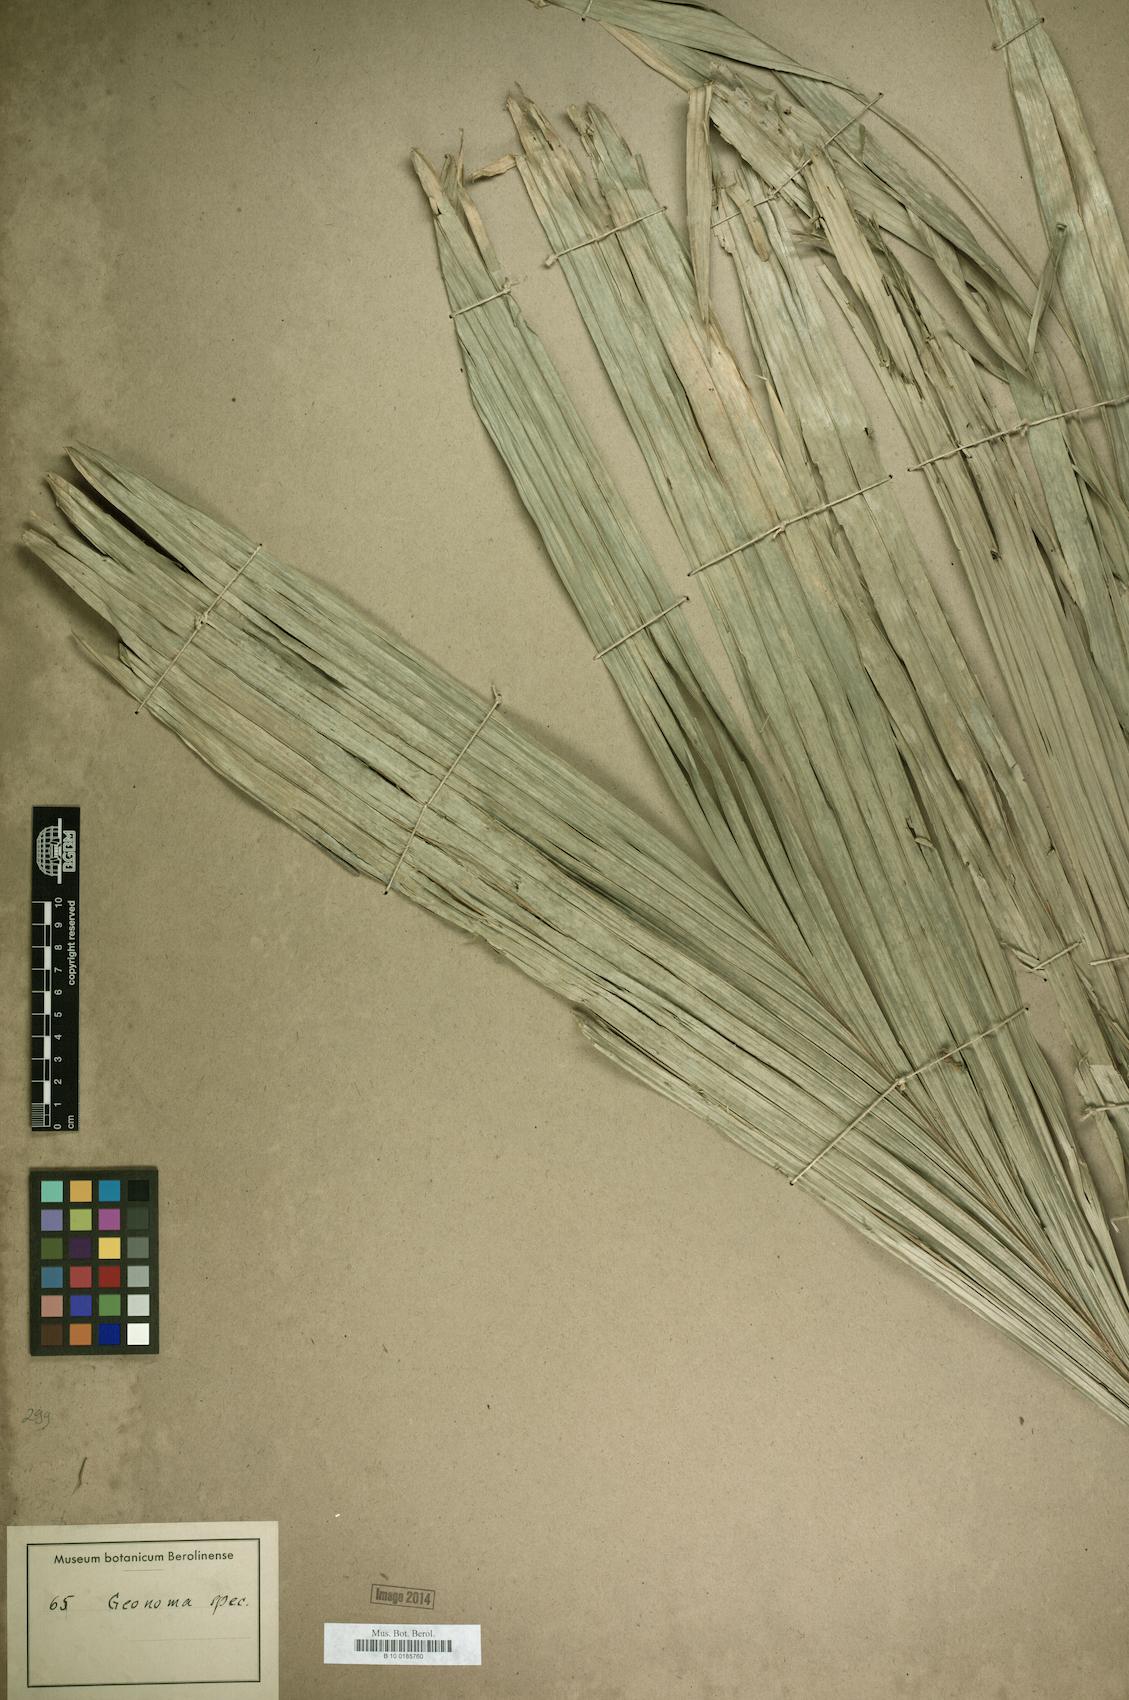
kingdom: Plantae
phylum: Tracheophyta
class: Liliopsida
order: Arecales
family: Arecaceae
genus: Geonoma
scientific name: Geonoma
